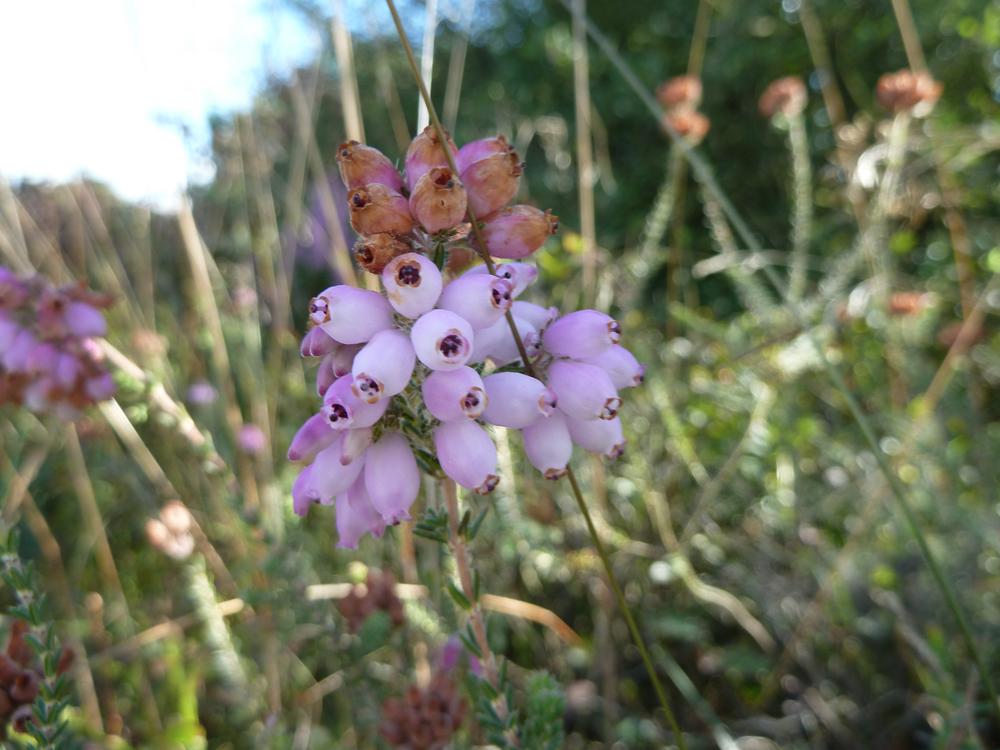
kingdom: Plantae
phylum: Tracheophyta
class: Magnoliopsida
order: Ericales
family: Ericaceae
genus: Erica
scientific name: Erica tetralix
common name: Cross-leaved heath
